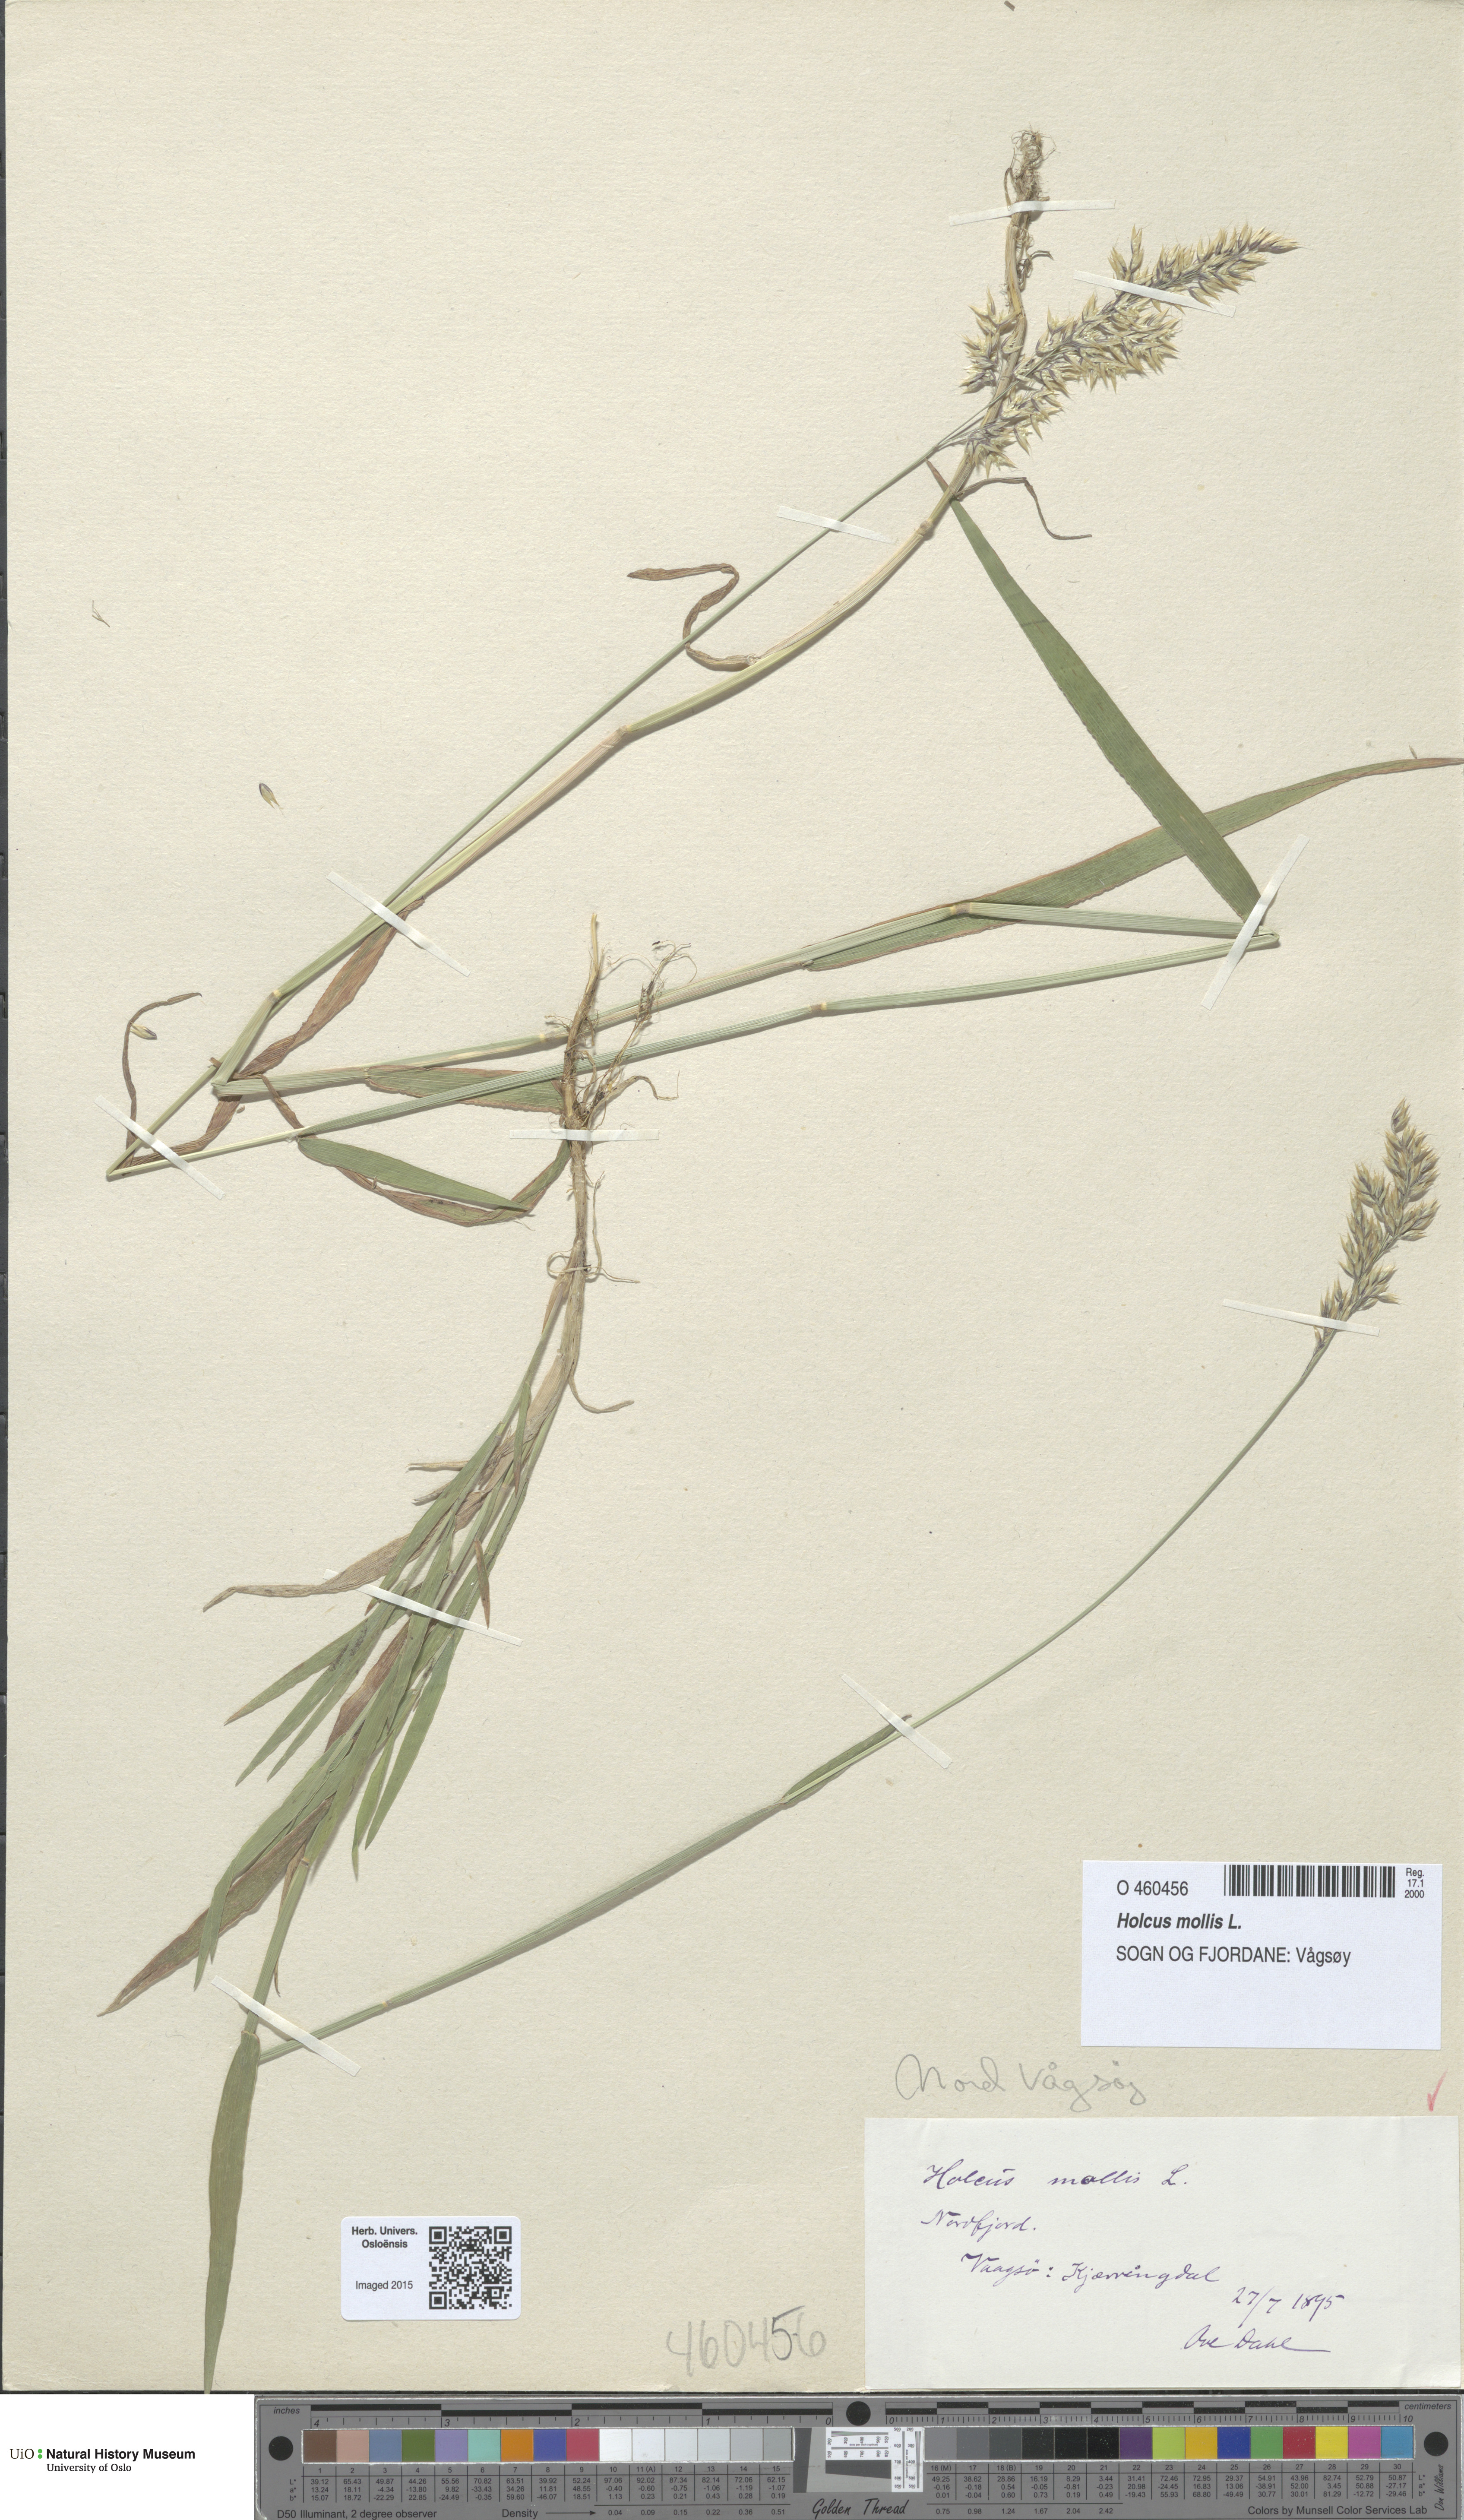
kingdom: Plantae
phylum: Tracheophyta
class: Liliopsida
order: Poales
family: Poaceae
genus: Holcus
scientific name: Holcus mollis
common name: Creeping velvetgrass
